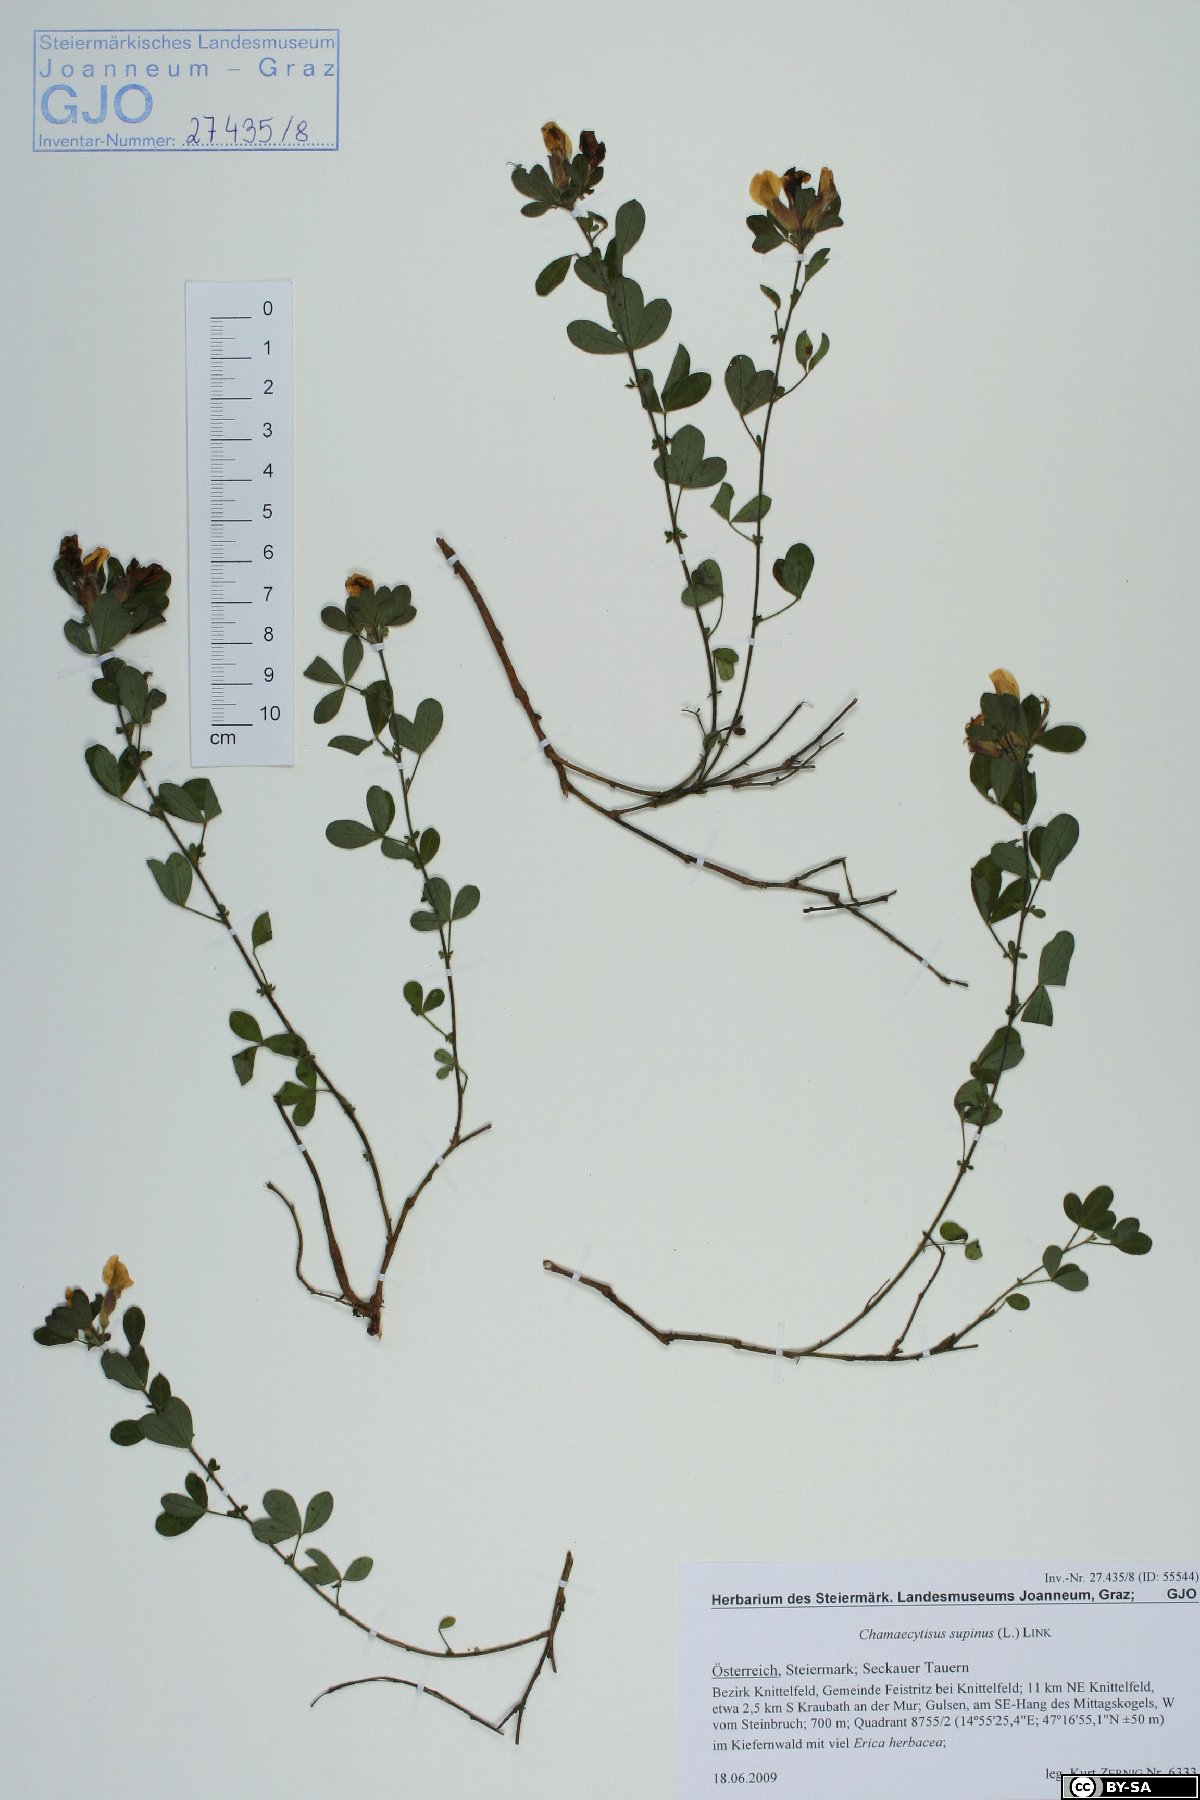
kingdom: Plantae
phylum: Tracheophyta
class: Magnoliopsida
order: Fabales
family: Fabaceae
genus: Chamaecytisus
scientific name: Chamaecytisus supinus
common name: Clustered broom
